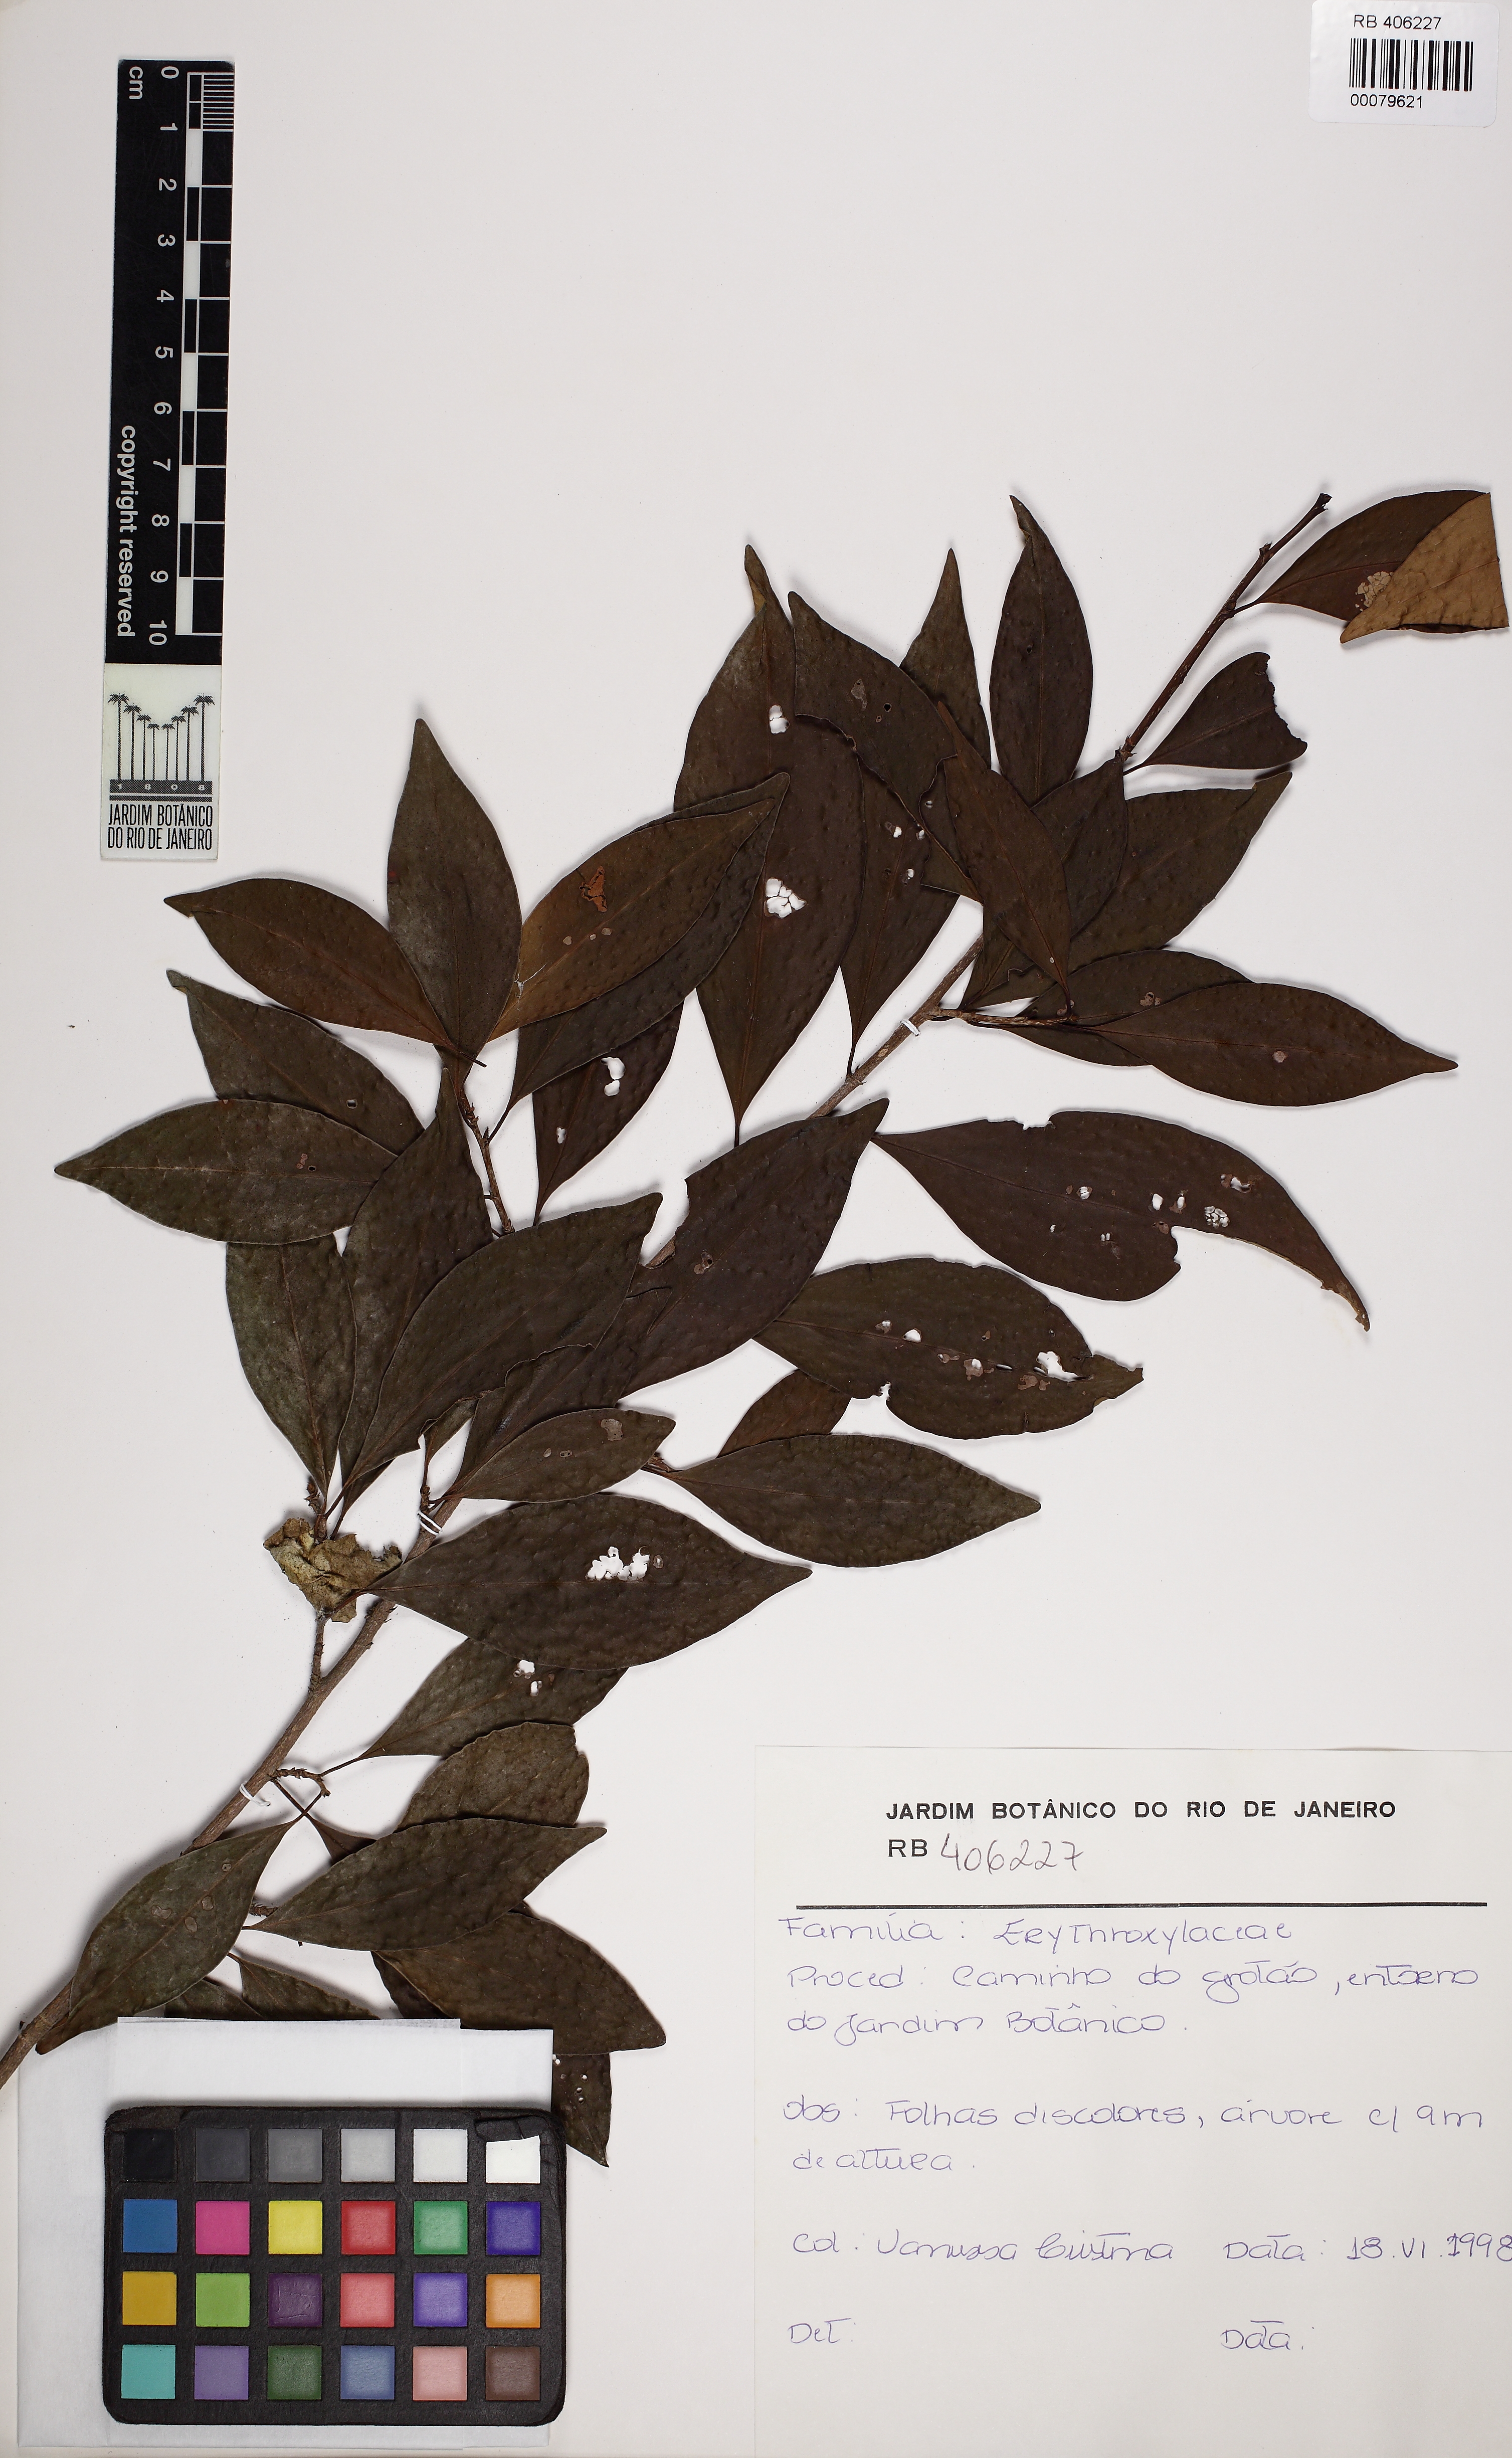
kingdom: Plantae
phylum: Tracheophyta
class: Magnoliopsida
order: Malpighiales
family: Erythroxylaceae
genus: Erythroxylum
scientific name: Erythroxylum cuspidifolium
